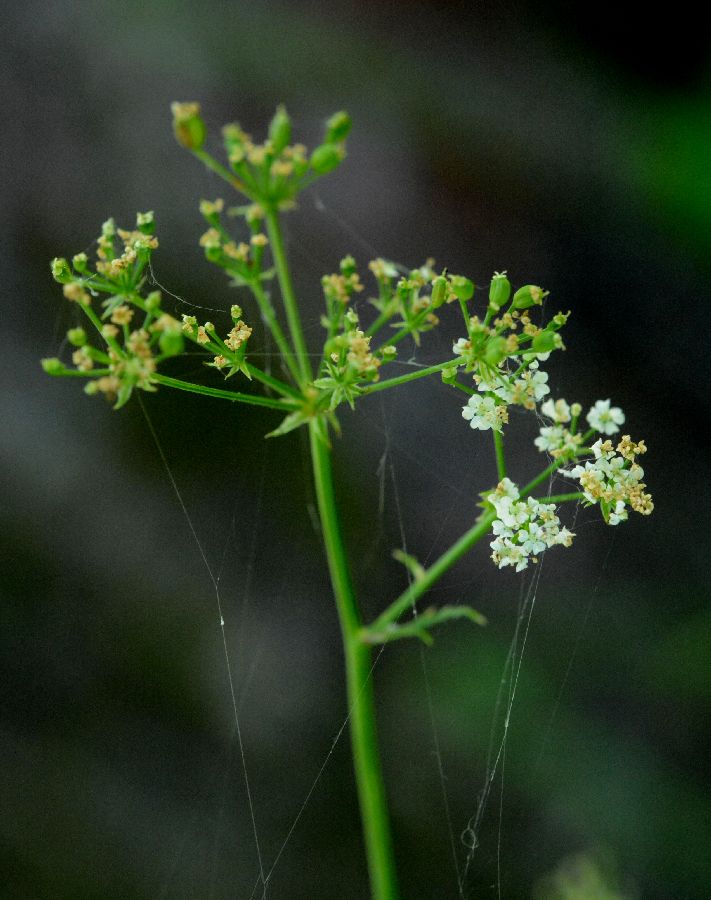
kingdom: Plantae
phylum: Tracheophyta
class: Magnoliopsida
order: Apiales
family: Apiaceae
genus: Sium
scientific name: Sium sisarum
